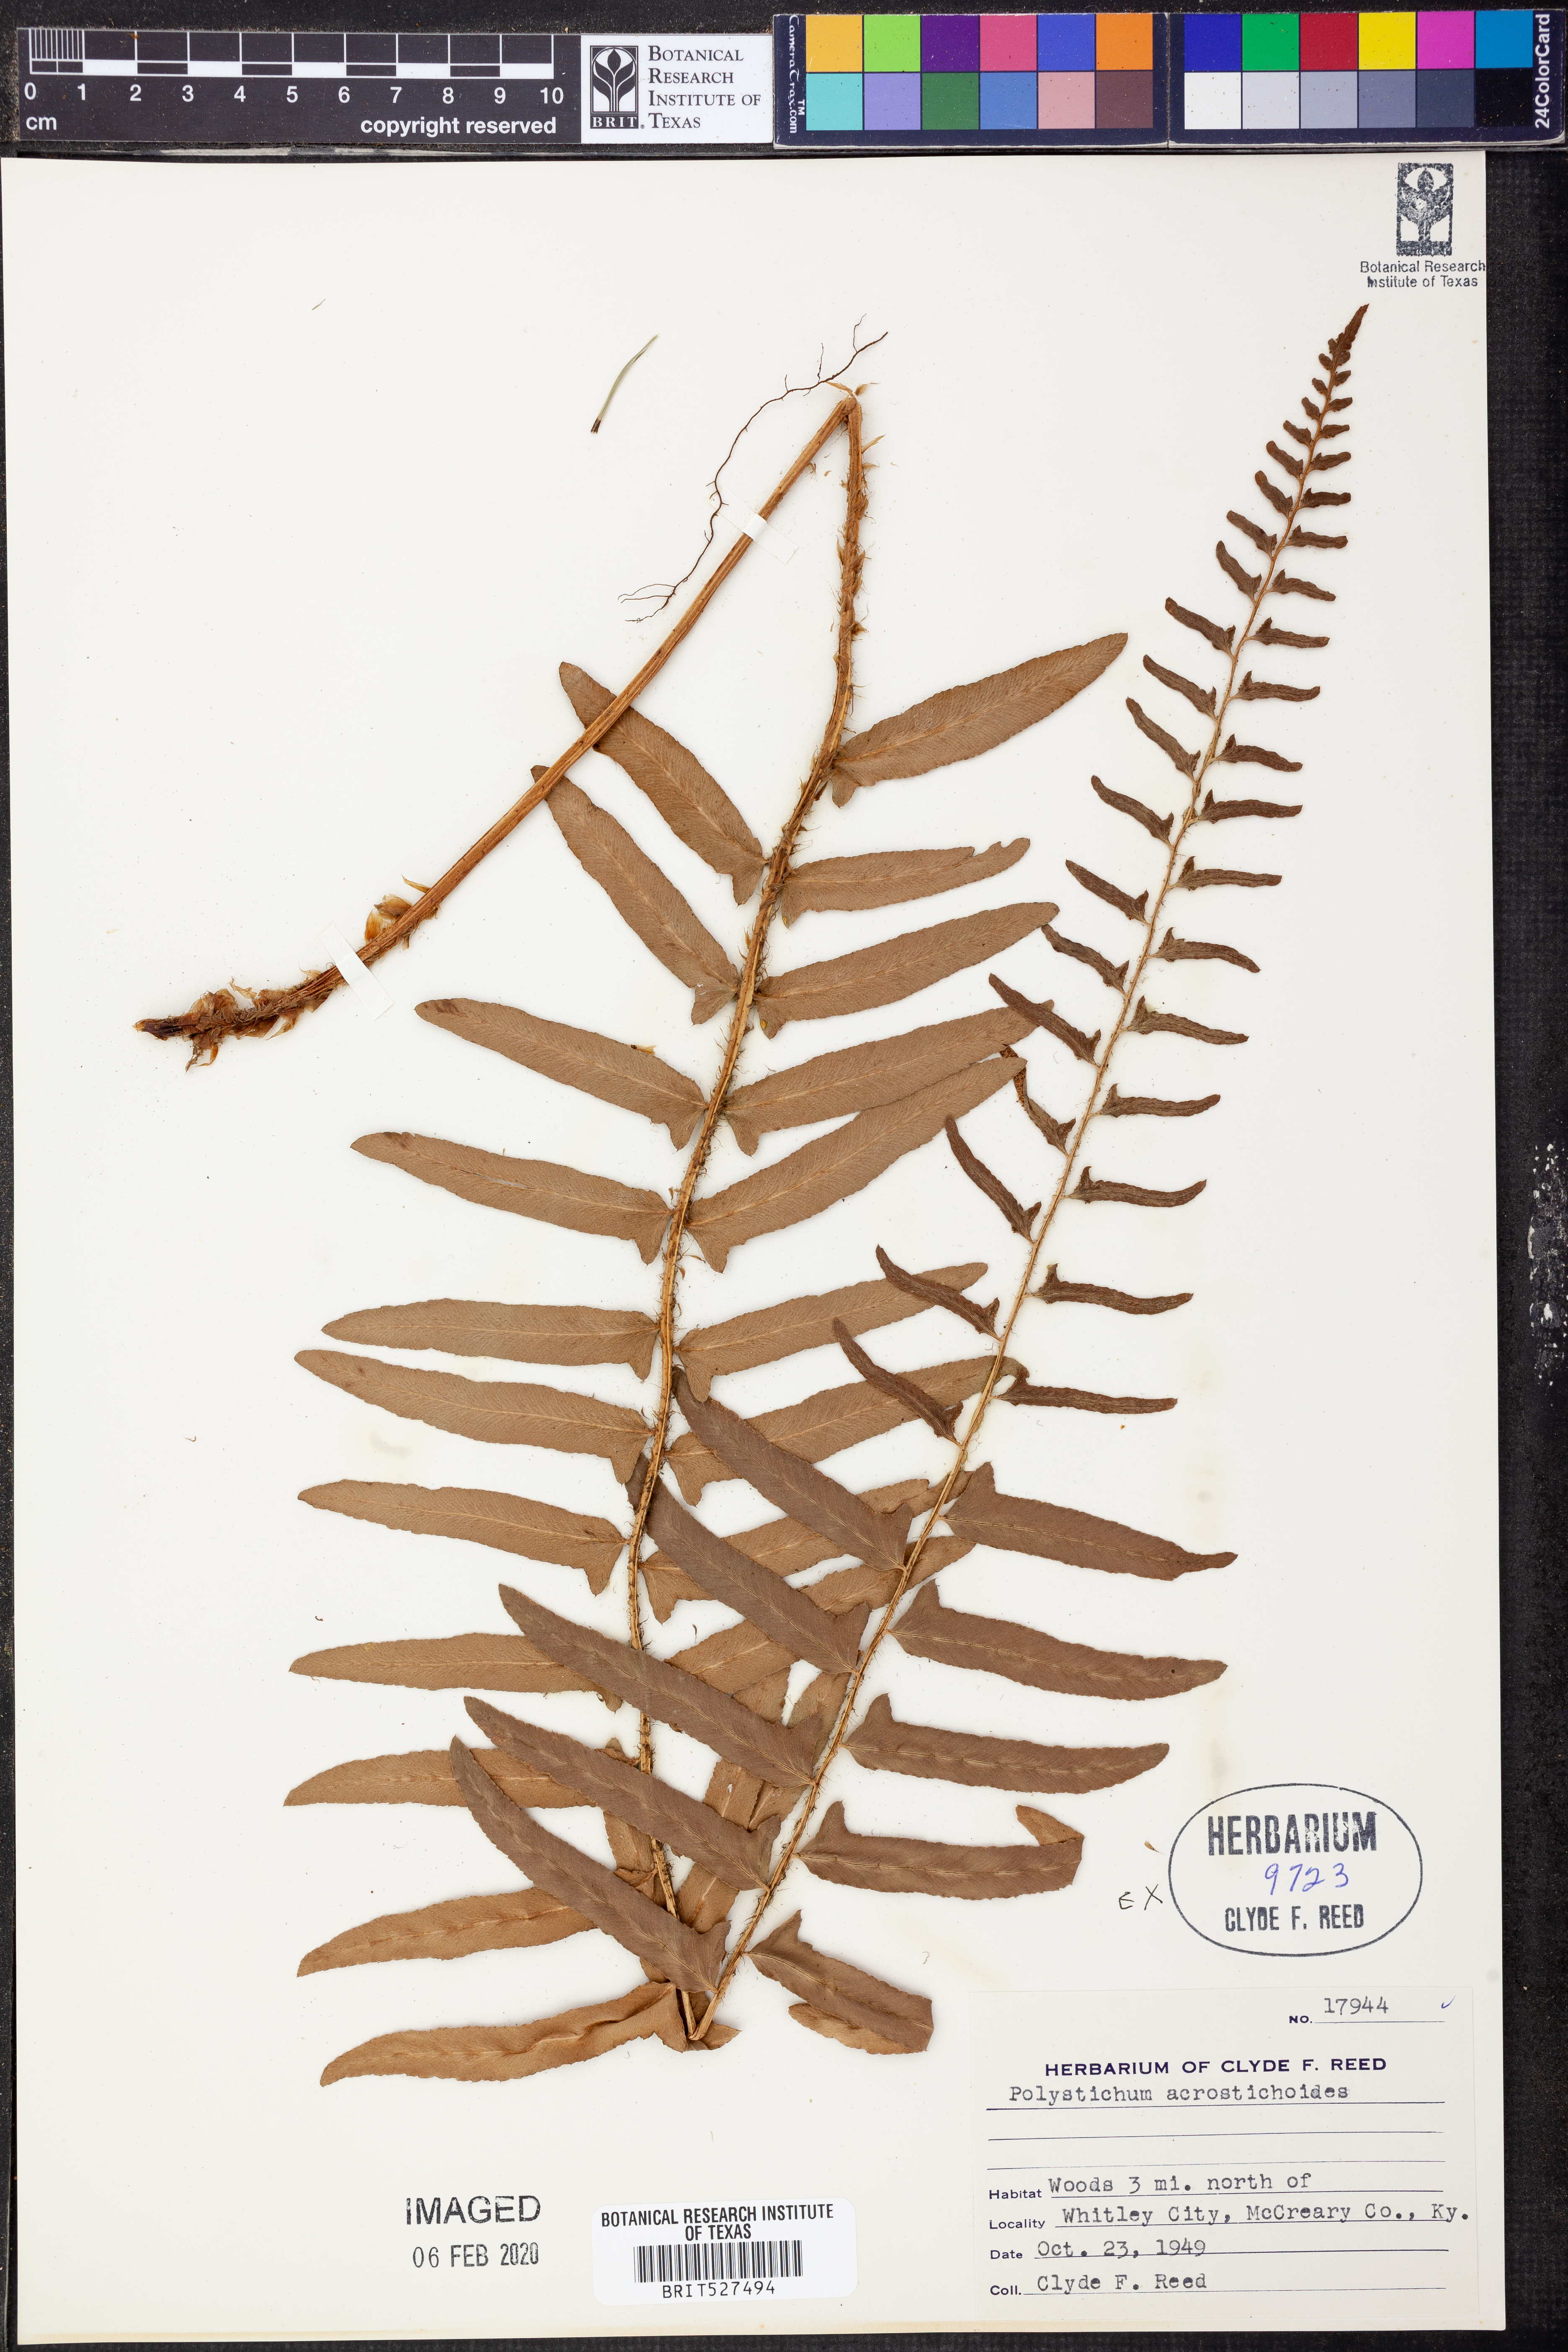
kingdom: Plantae
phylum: Tracheophyta
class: Polypodiopsida
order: Polypodiales
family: Dryopteridaceae
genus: Polystichum
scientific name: Polystichum acrostichoides
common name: Christmas fern
